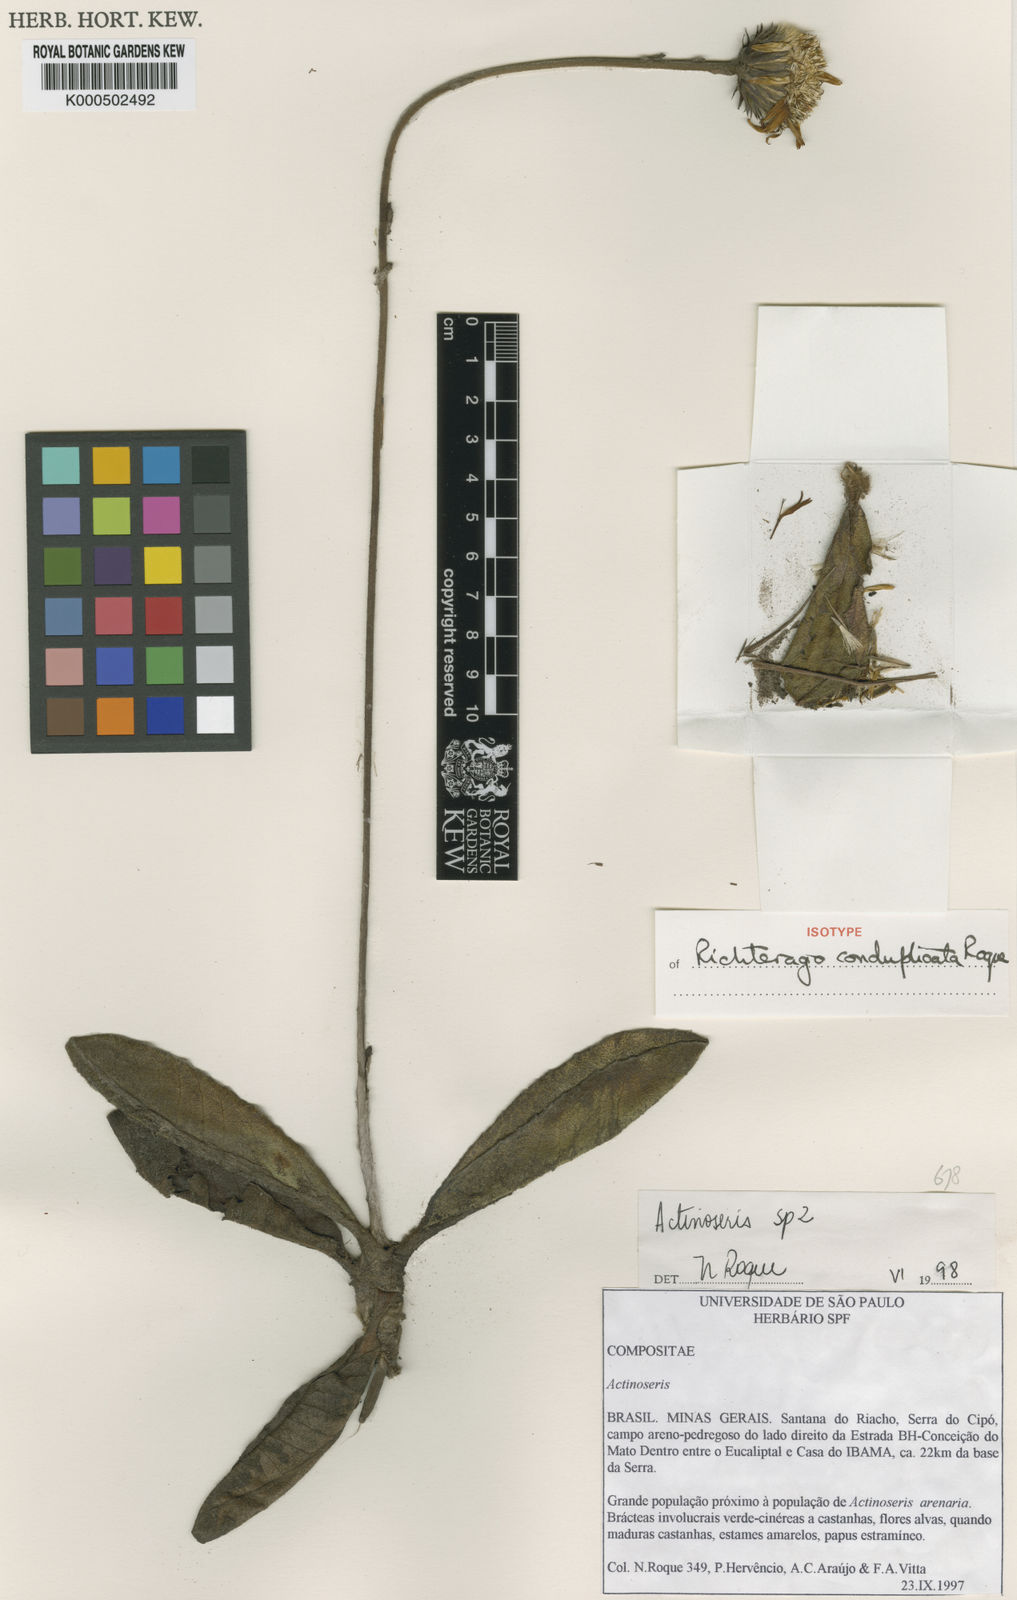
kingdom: Plantae
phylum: Tracheophyta
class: Magnoliopsida
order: Asterales
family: Asteraceae
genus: Richterago
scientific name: Richterago conduplicata
